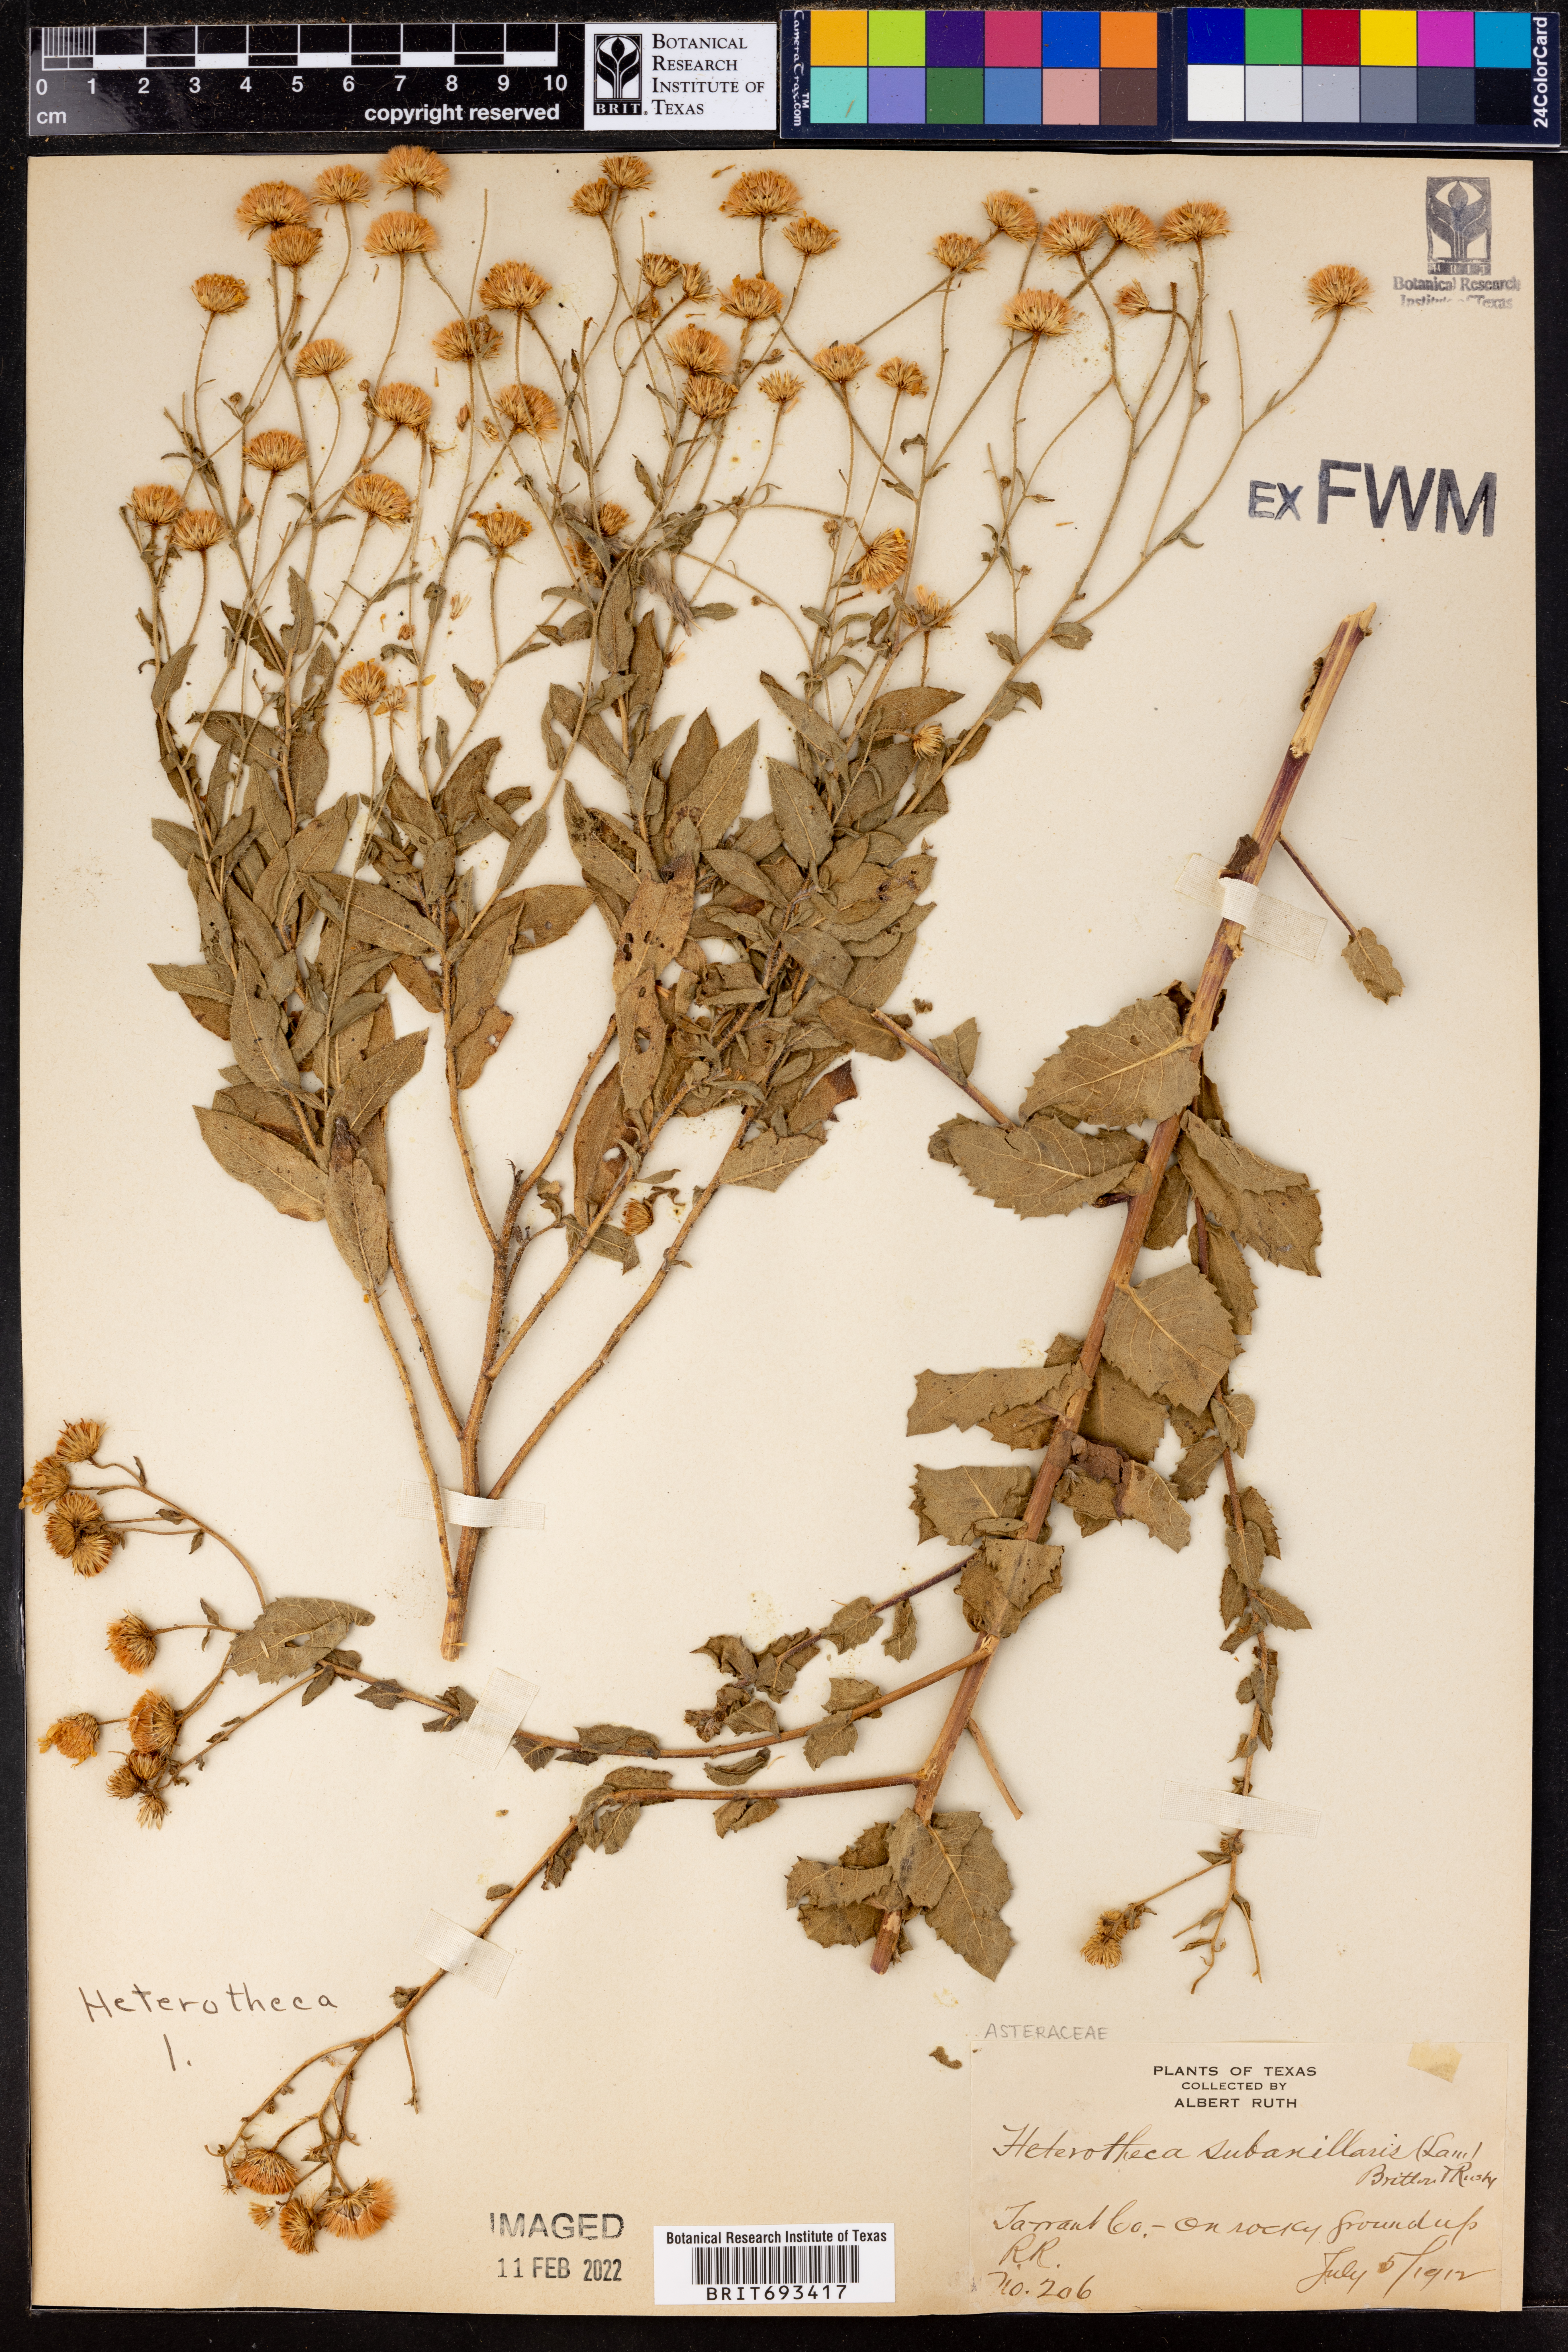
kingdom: Plantae
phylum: Tracheophyta
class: Magnoliopsida
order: Asterales
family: Asteraceae
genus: Heterotheca
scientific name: Heterotheca subaxillaris
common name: Camphorweed
